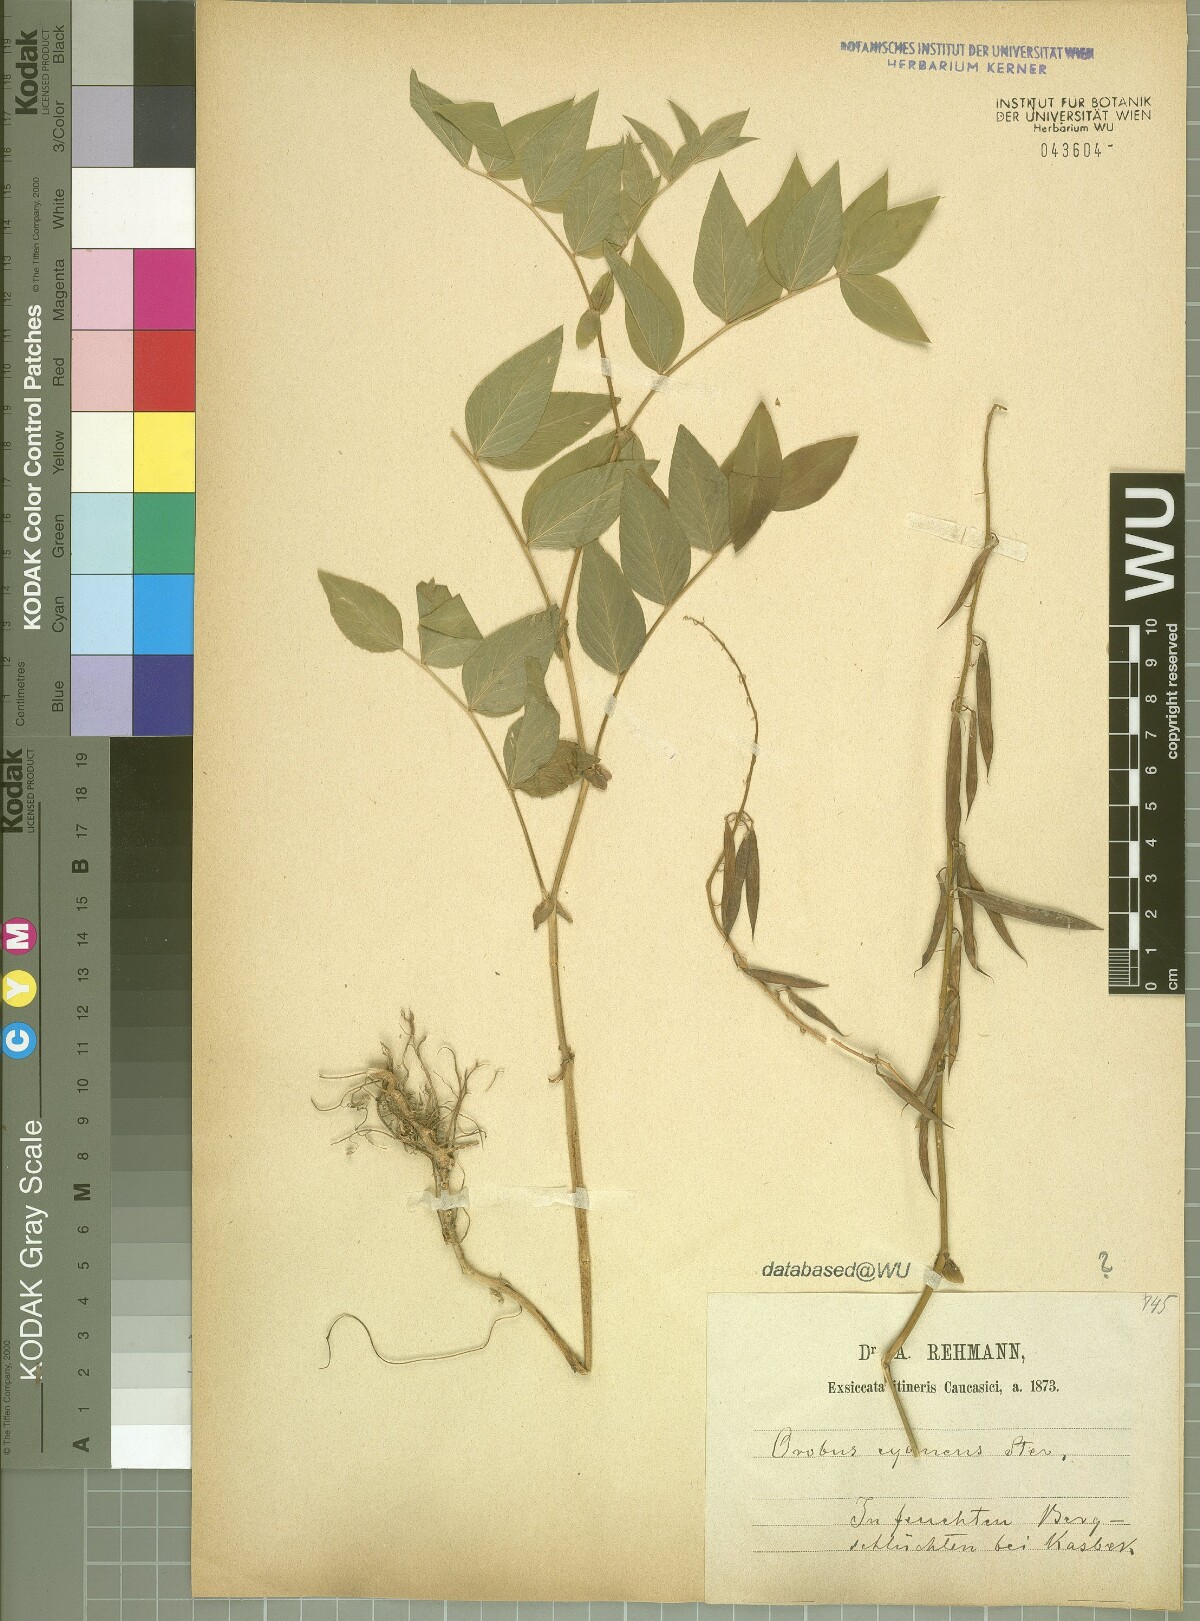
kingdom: Plantae
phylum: Tracheophyta
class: Magnoliopsida
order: Fabales
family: Fabaceae
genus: Lathyrus
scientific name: Lathyrus cyaneus
